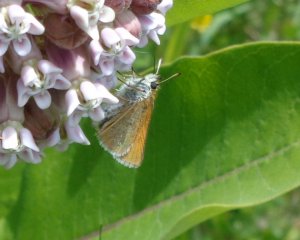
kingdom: Animalia
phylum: Arthropoda
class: Insecta
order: Lepidoptera
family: Hesperiidae
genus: Thymelicus
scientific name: Thymelicus lineola
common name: European Skipper
